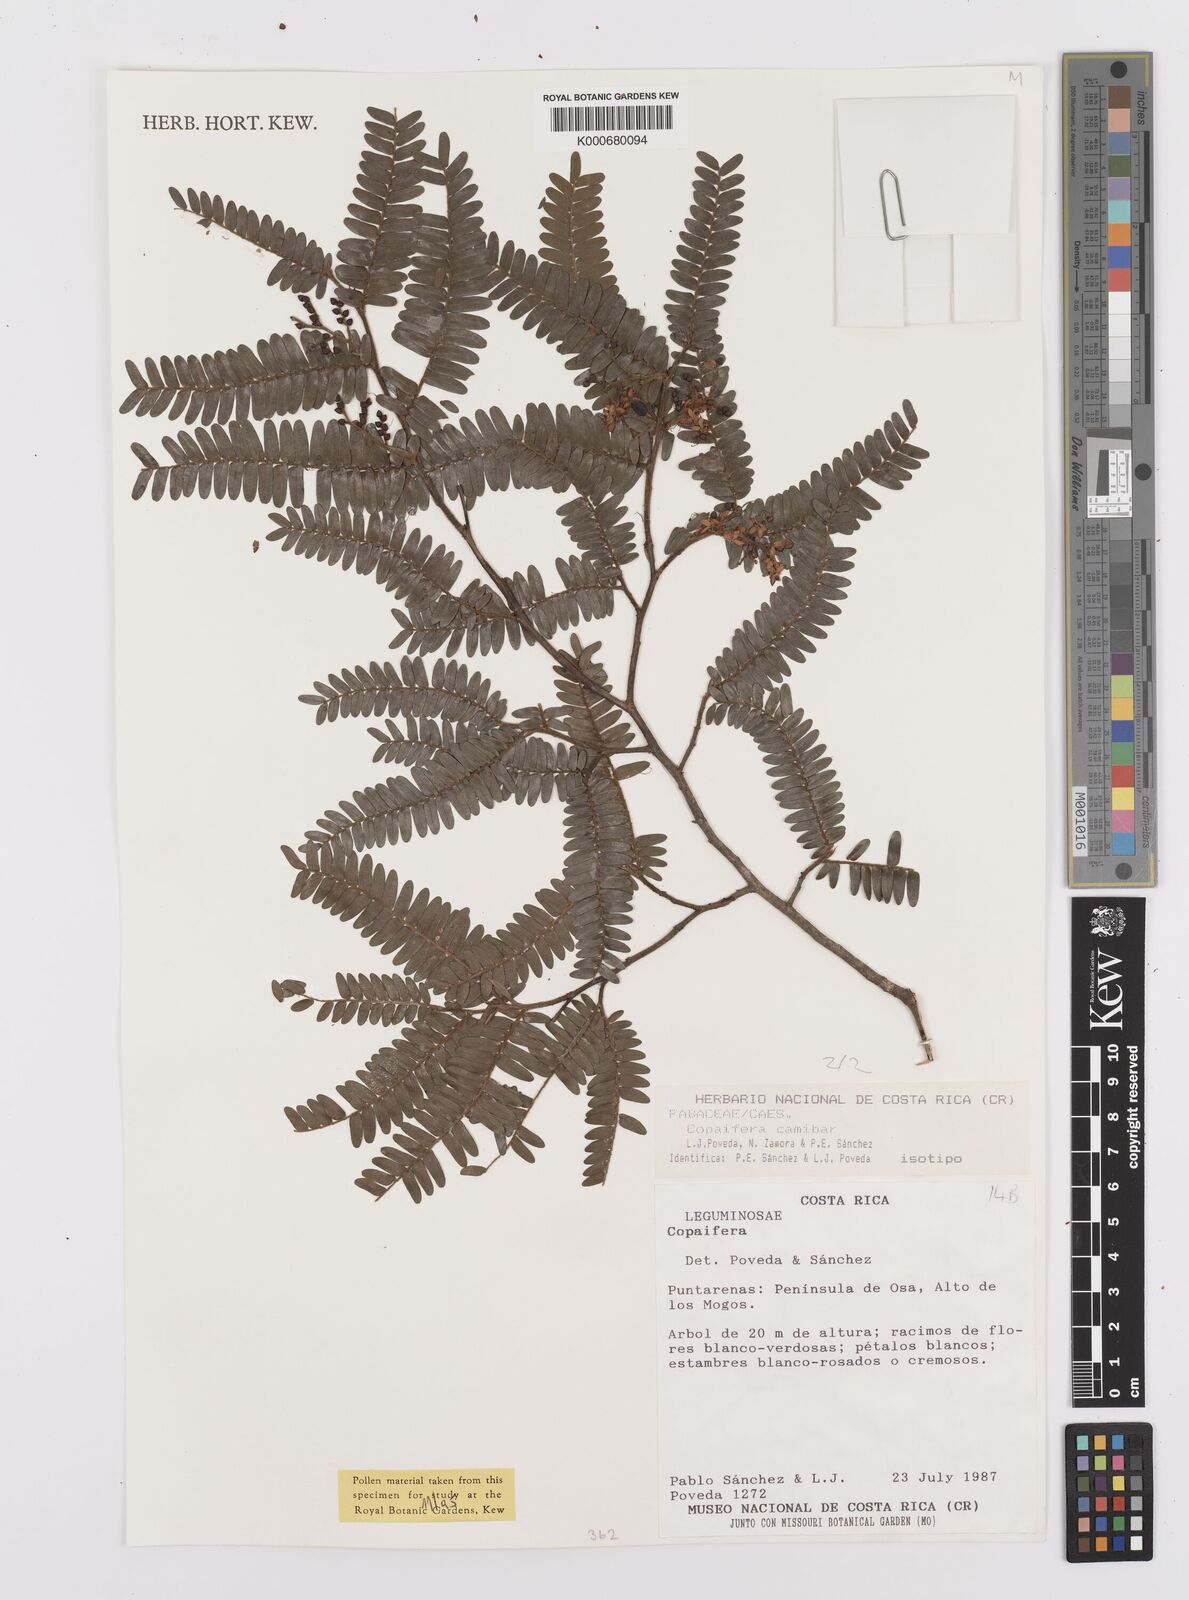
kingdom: Plantae
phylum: Tracheophyta
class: Magnoliopsida
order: Fabales
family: Fabaceae
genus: Copaifera
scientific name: Copaifera
